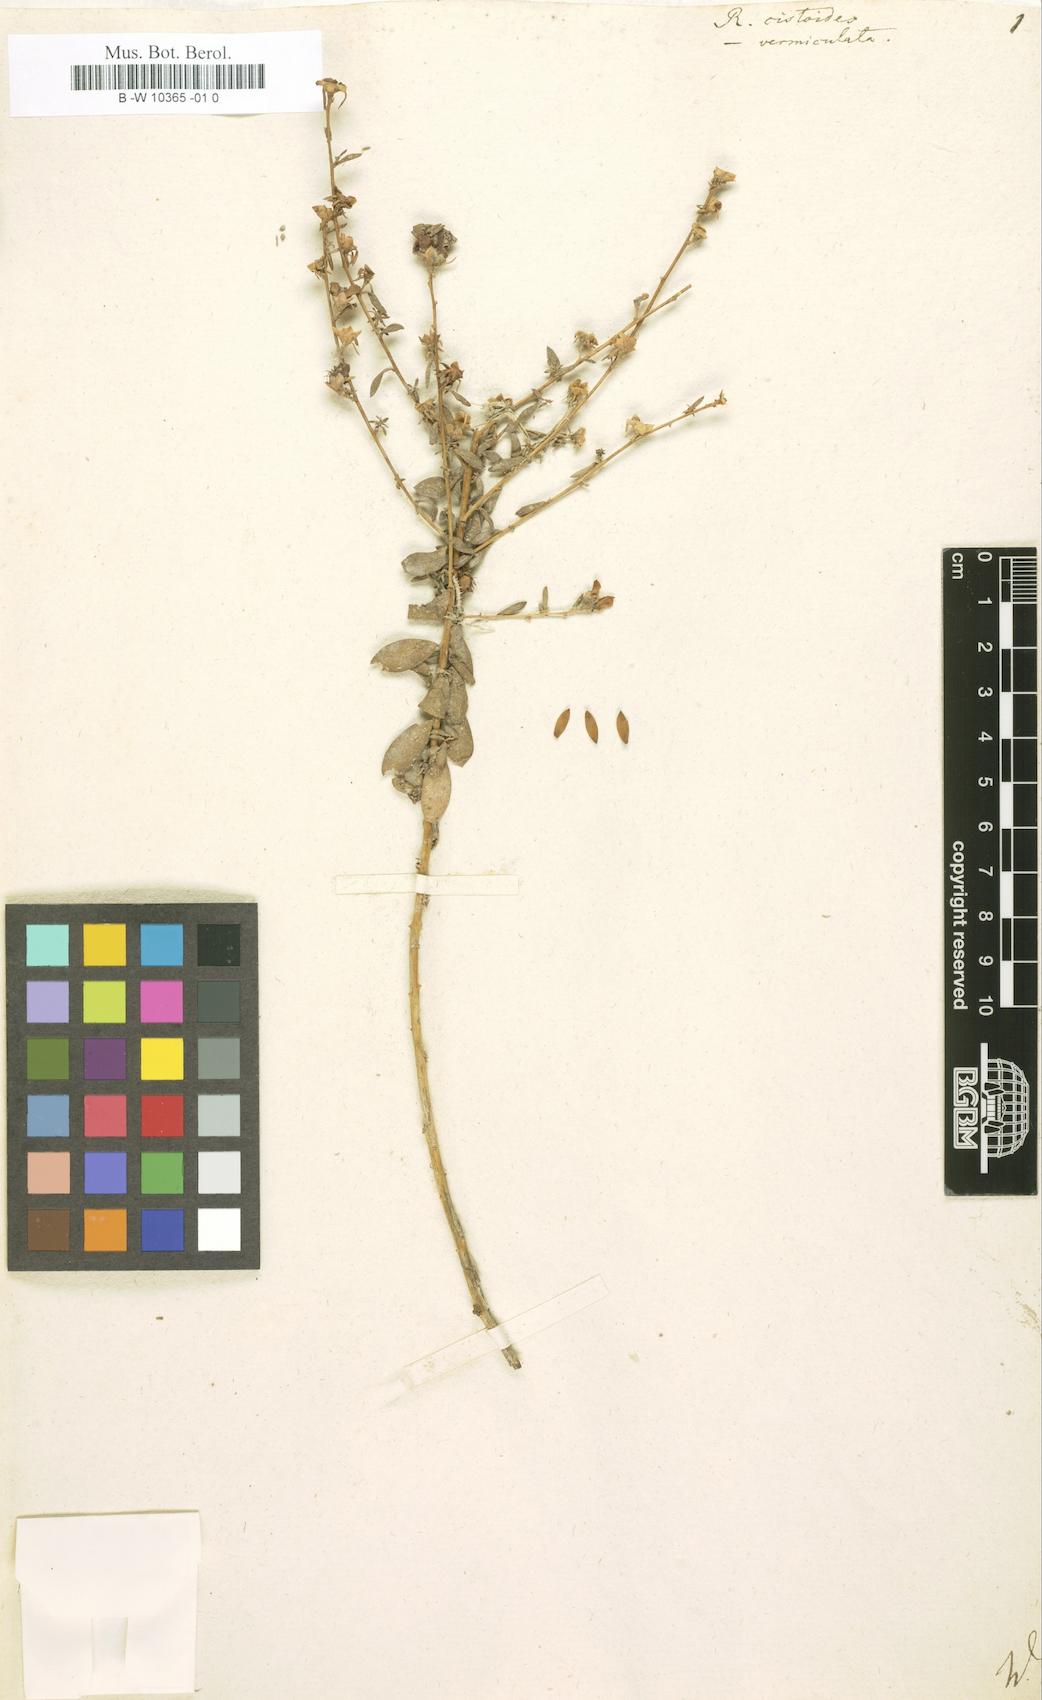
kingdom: Plantae
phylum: Tracheophyta
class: Magnoliopsida
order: Caryophyllales
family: Tamaricaceae
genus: Reaumuria
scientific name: Reaumuria alternifolia
